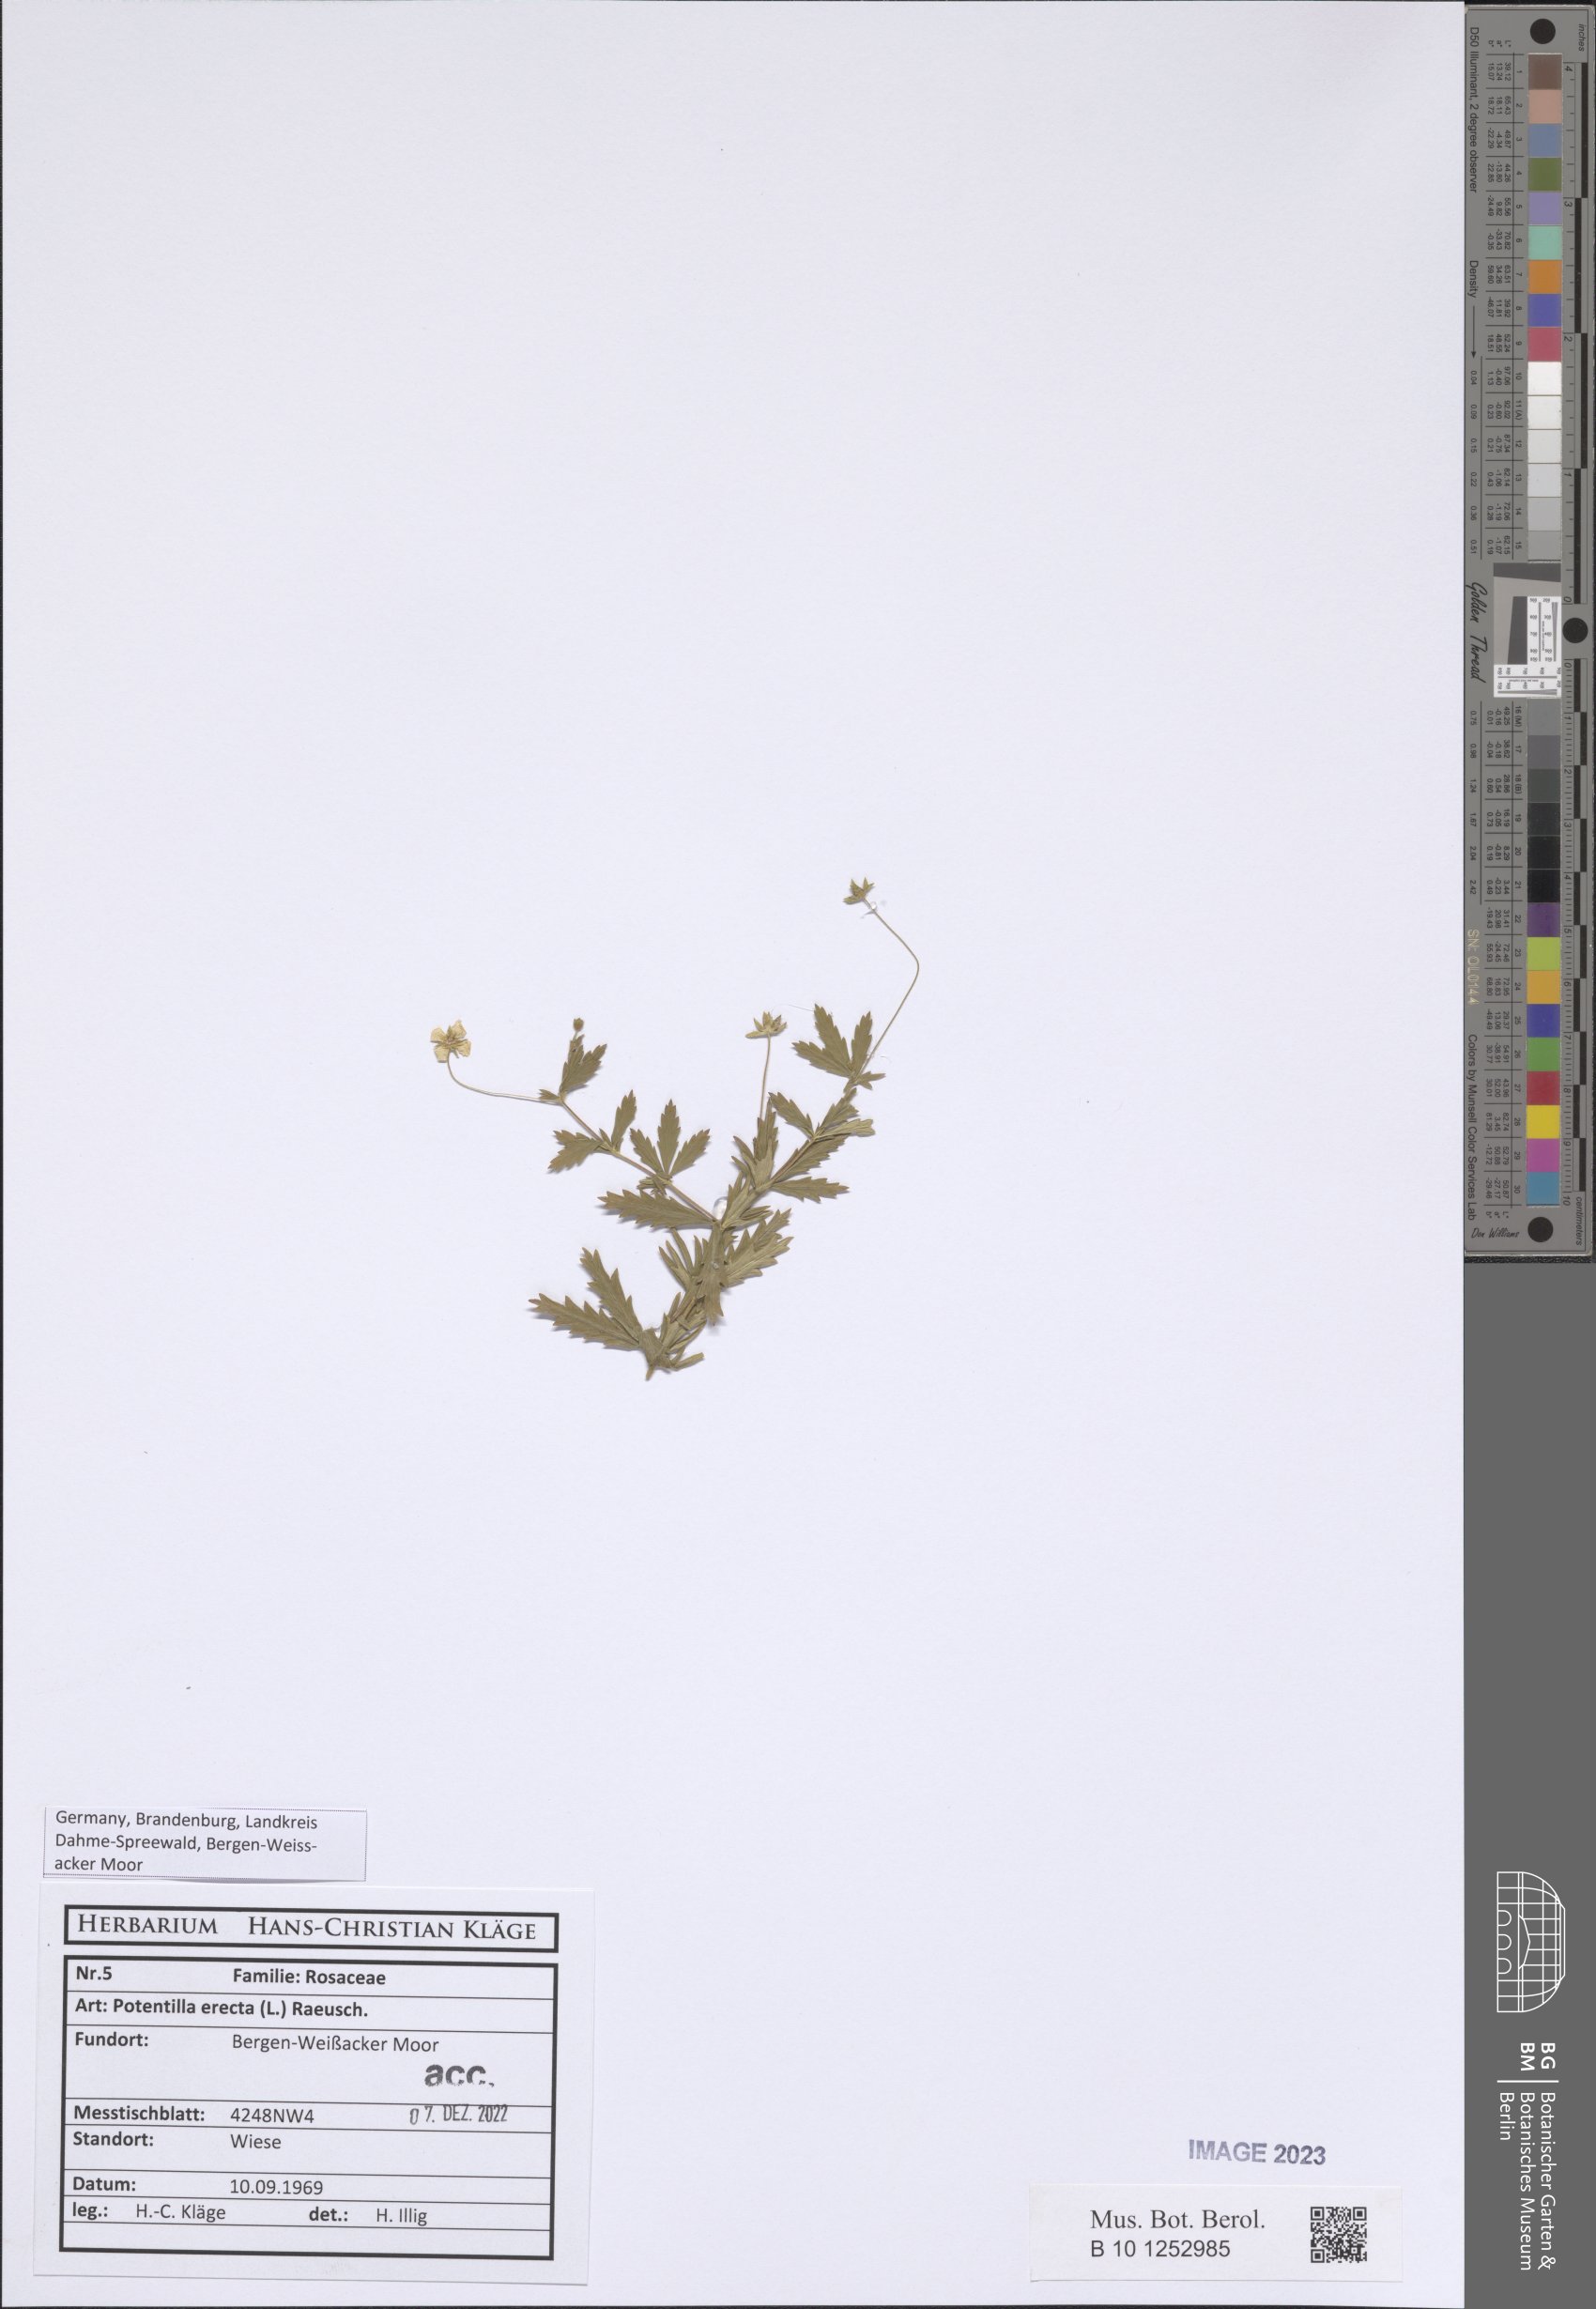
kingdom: Plantae
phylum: Tracheophyta
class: Magnoliopsida
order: Rosales
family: Rosaceae
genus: Potentilla
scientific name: Potentilla erecta
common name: Tormentil
